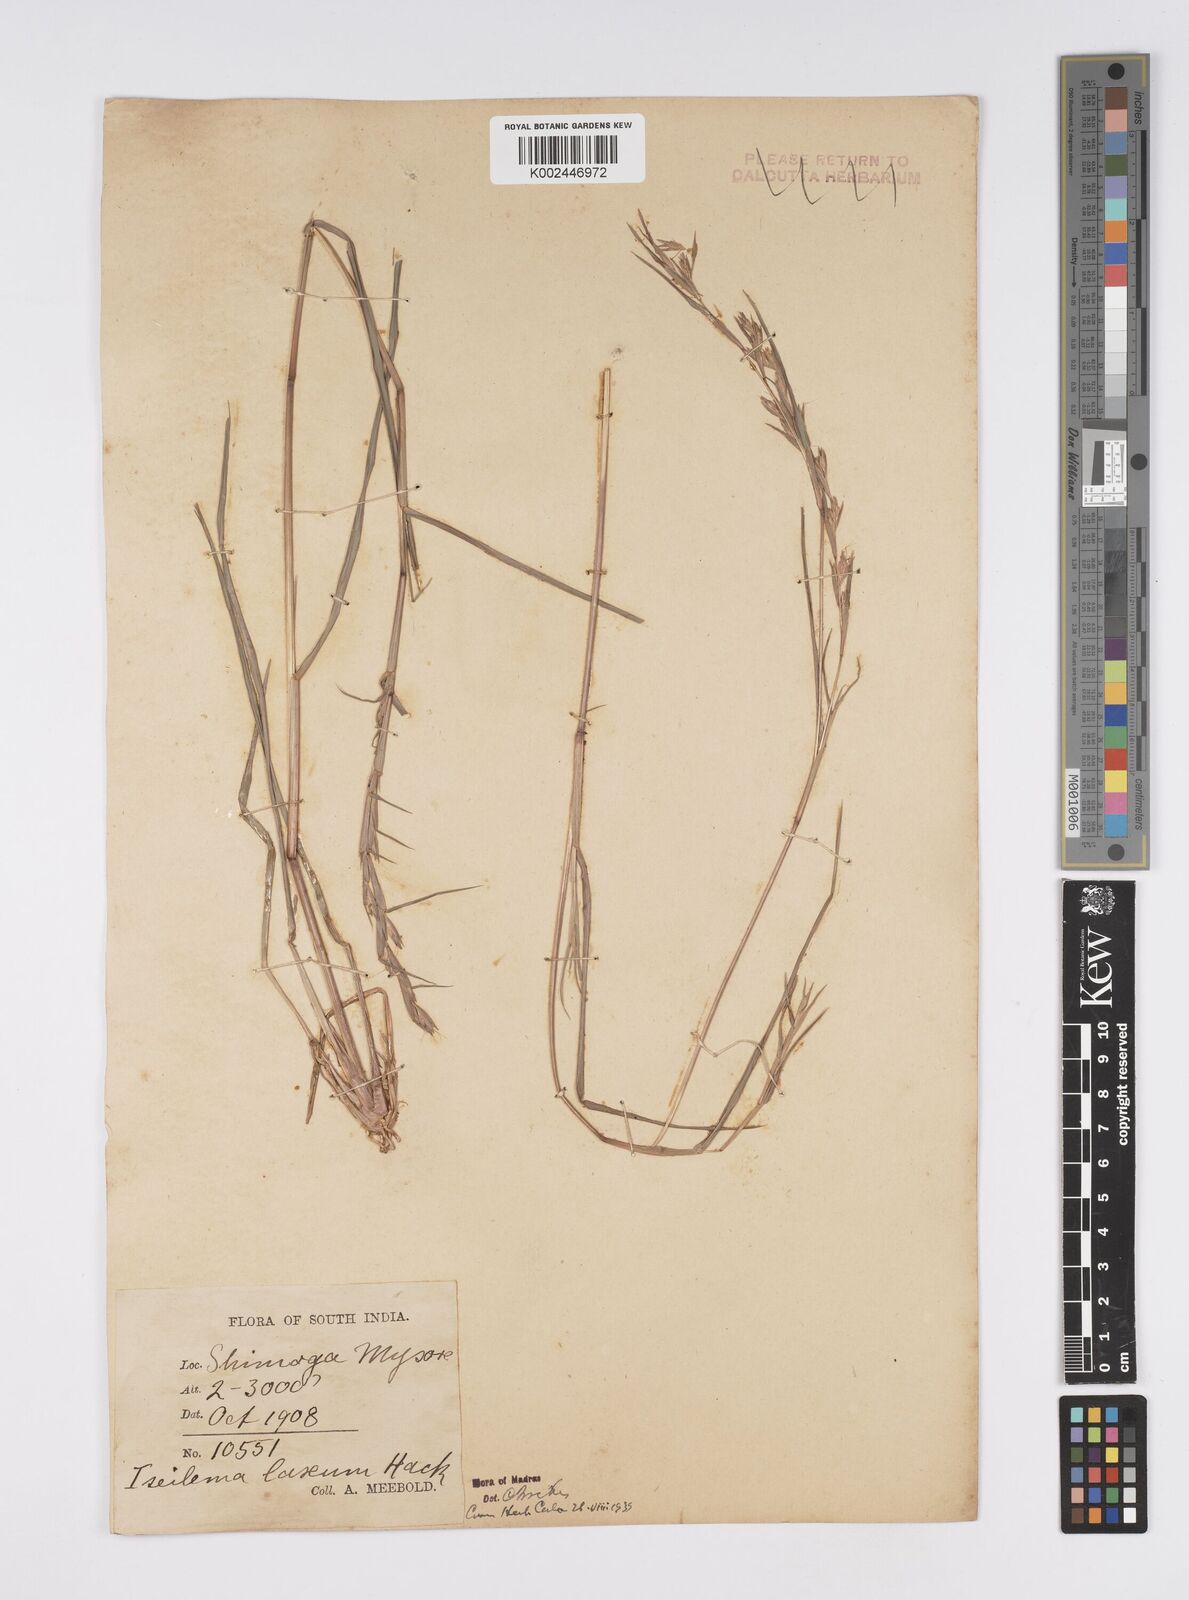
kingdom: Plantae
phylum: Tracheophyta
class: Liliopsida
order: Poales
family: Poaceae
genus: Iseilema
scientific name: Iseilema prostratum
